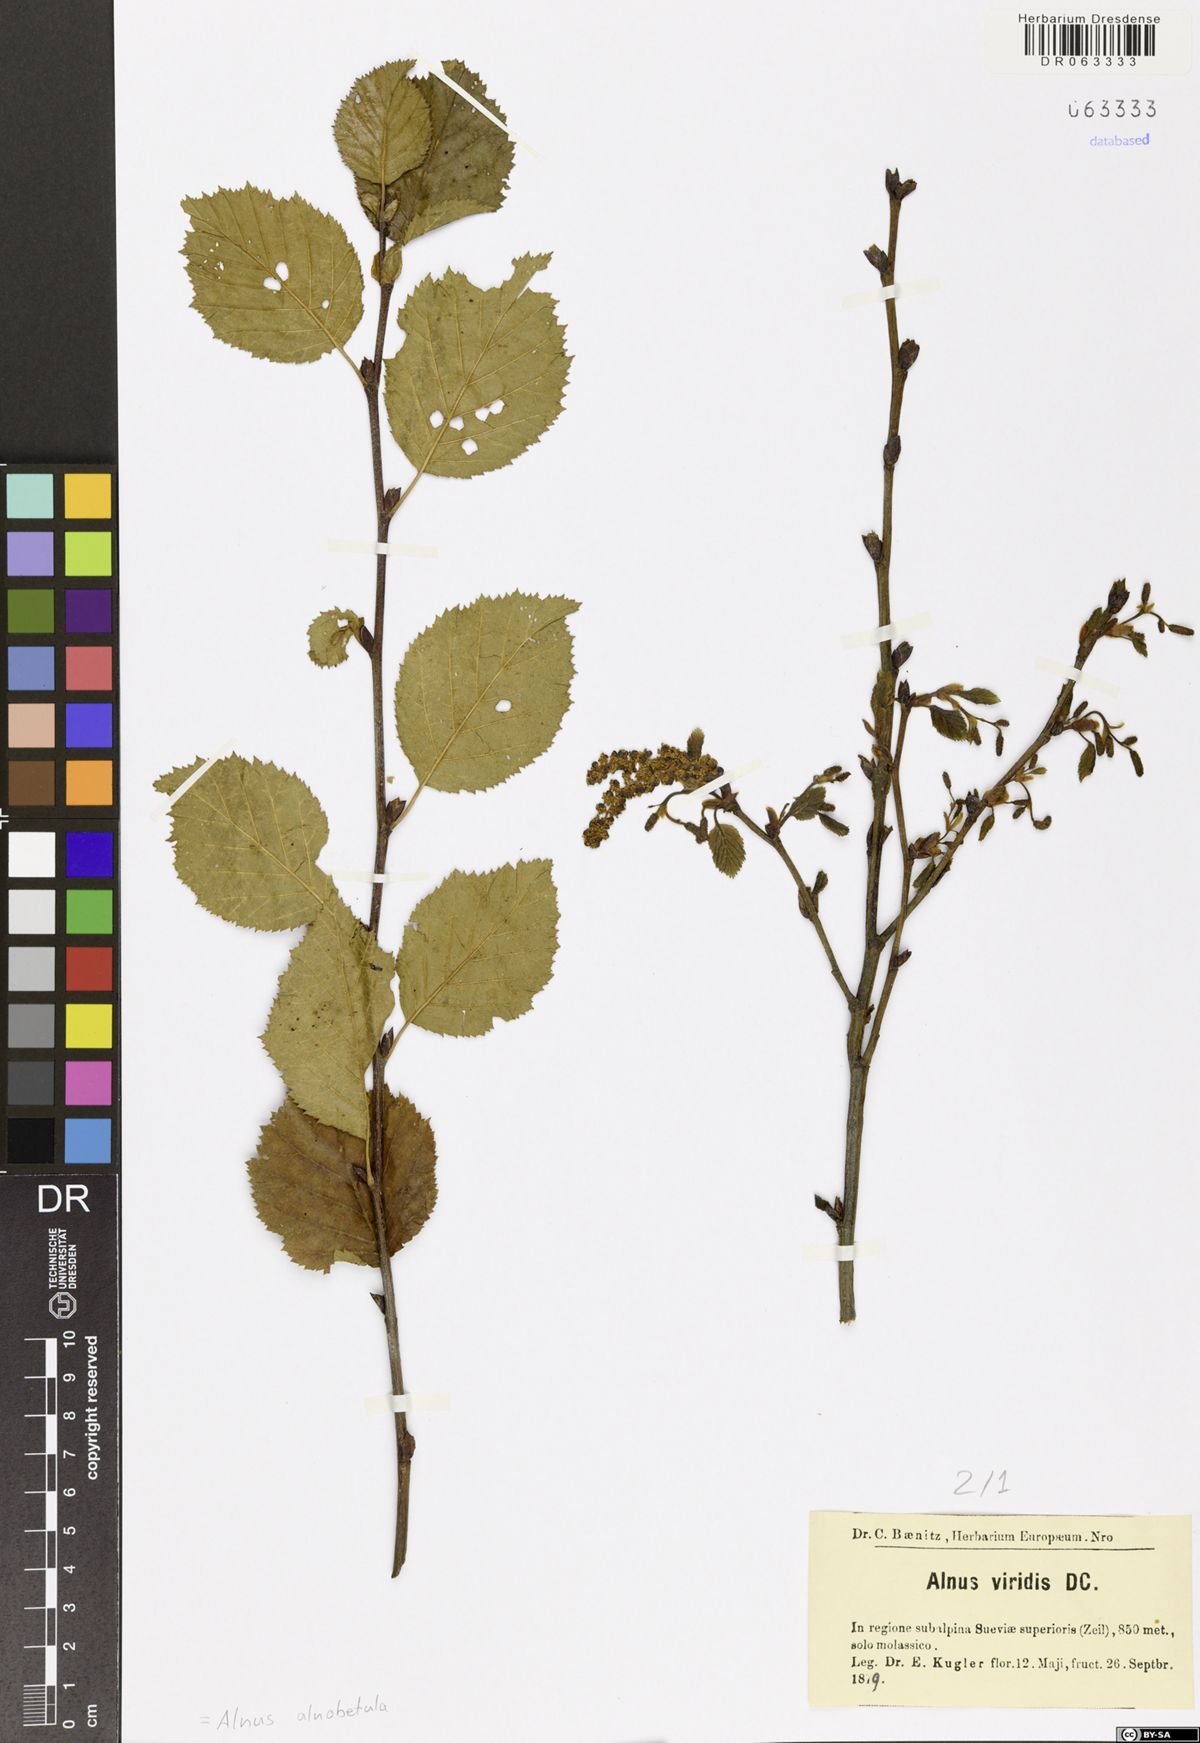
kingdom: Plantae
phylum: Tracheophyta
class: Magnoliopsida
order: Fagales
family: Betulaceae
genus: Alnus
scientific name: Alnus alnobetula
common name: Green alder
